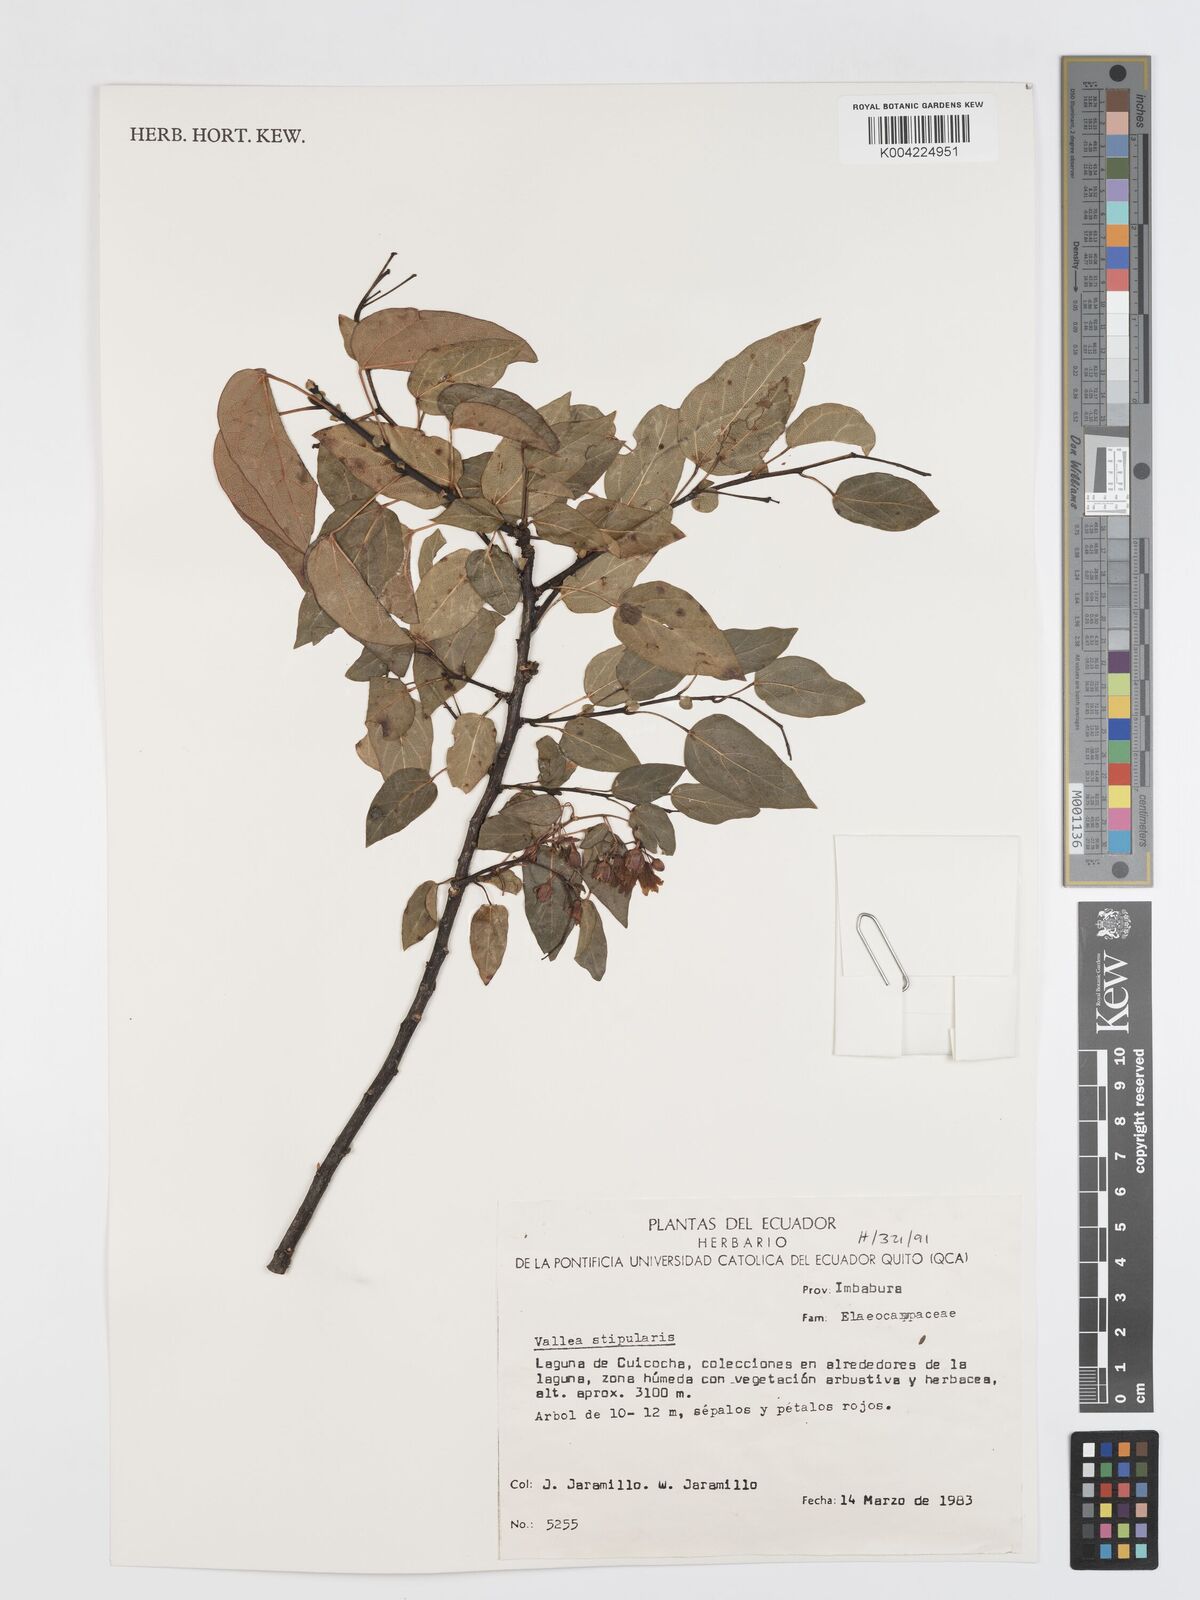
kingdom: Plantae
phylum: Tracheophyta
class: Magnoliopsida
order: Oxalidales
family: Elaeocarpaceae
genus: Vallea
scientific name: Vallea stipularis
